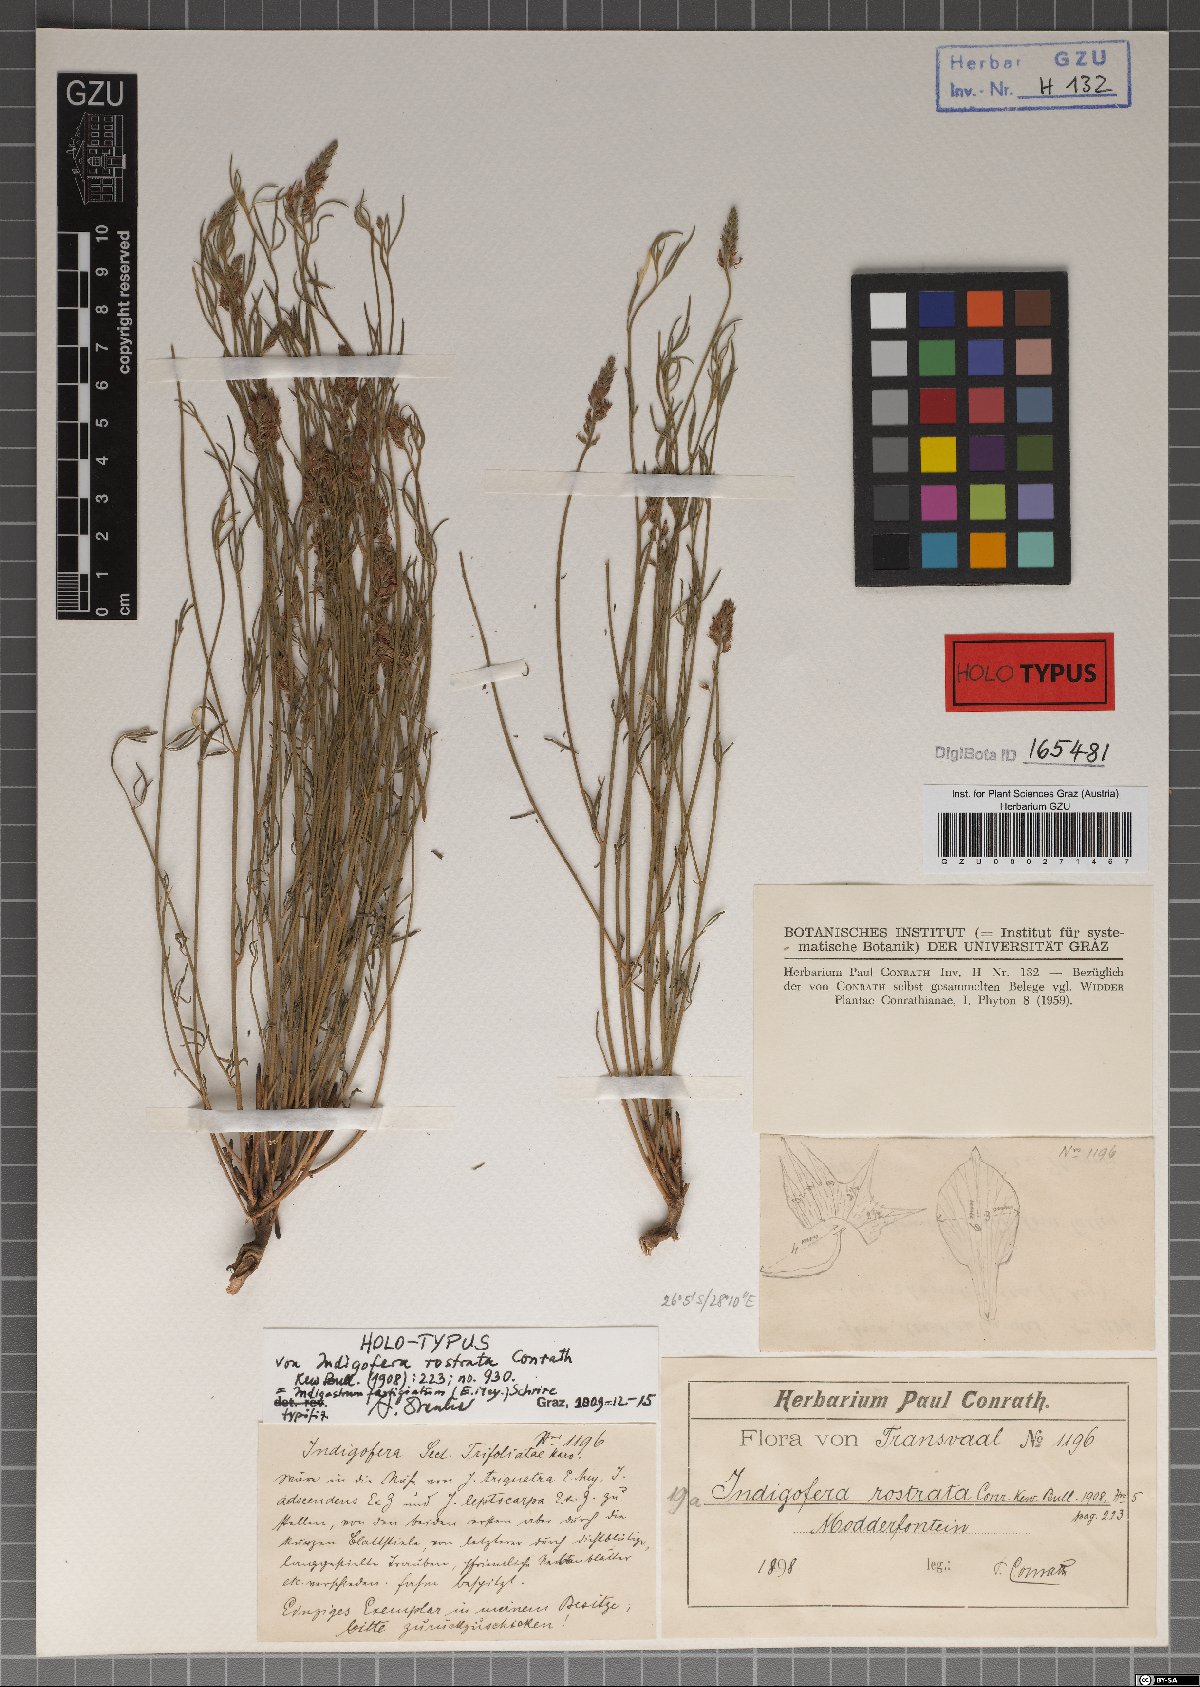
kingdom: Plantae
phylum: Tracheophyta
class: Magnoliopsida
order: Fabales
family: Fabaceae
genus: Indigastrum
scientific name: Indigastrum fastigiatum
